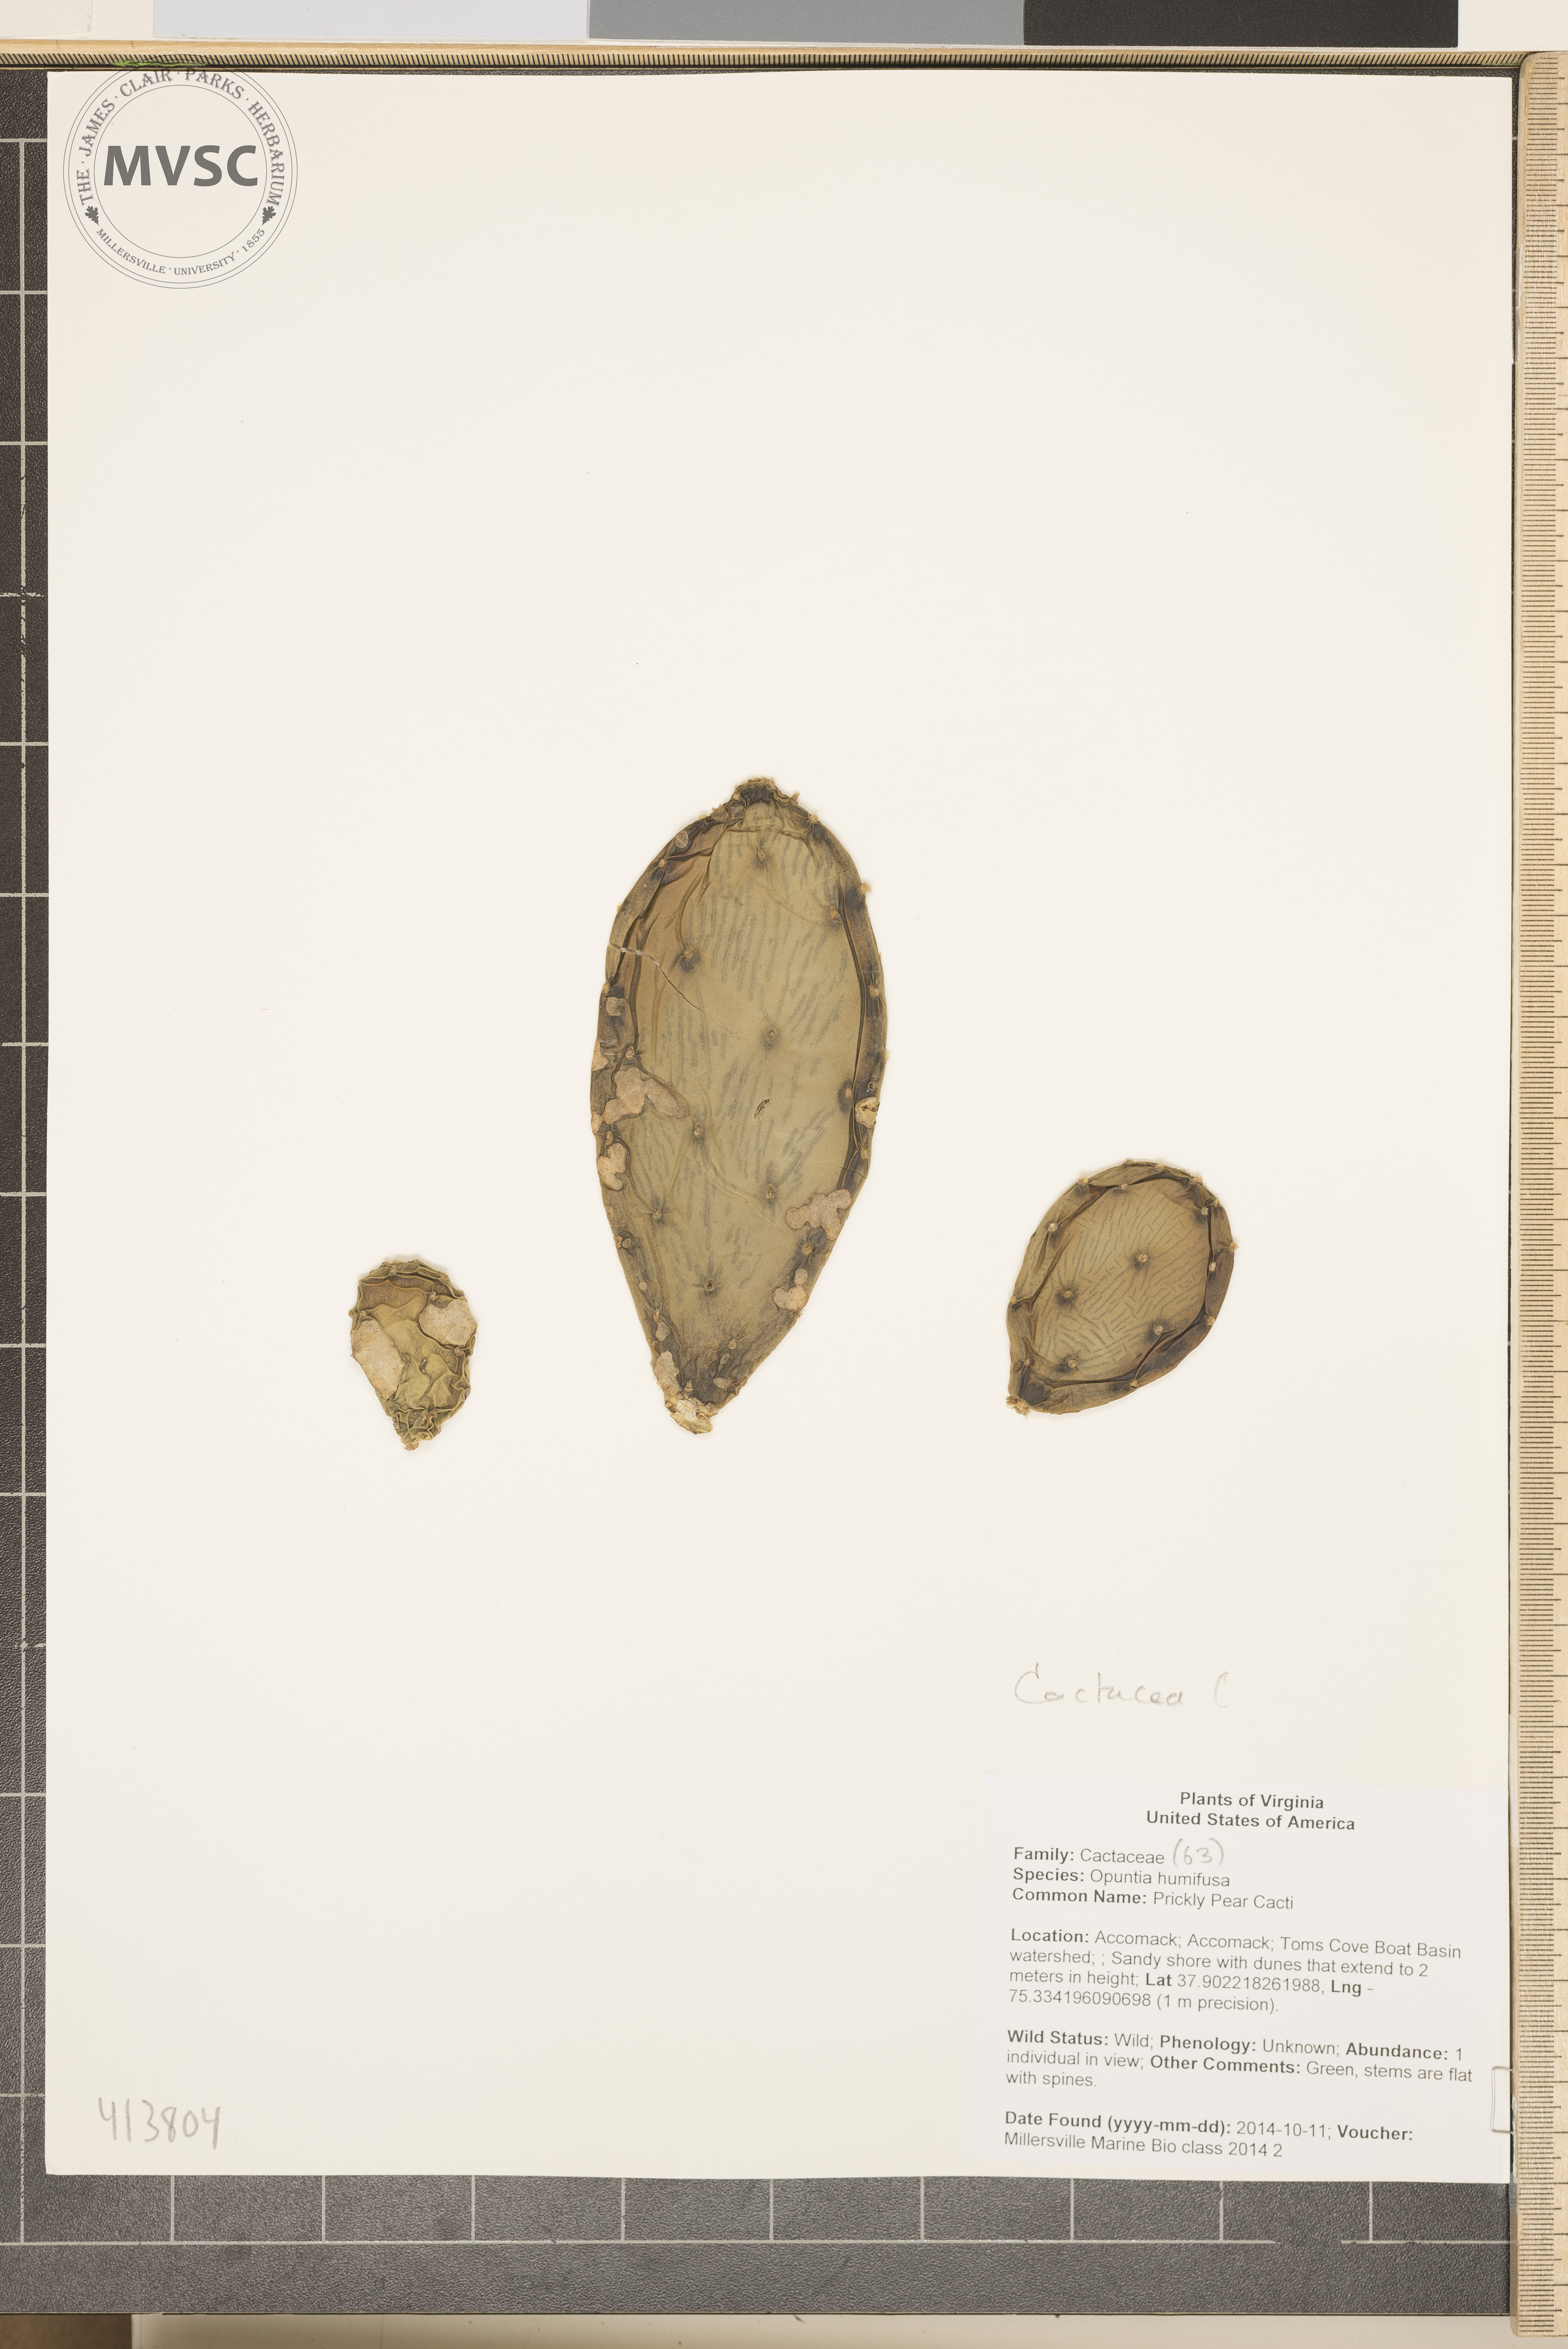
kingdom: Plantae
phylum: Tracheophyta
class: Magnoliopsida
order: Caryophyllales
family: Cactaceae
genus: Opuntia
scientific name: Opuntia humifusa
